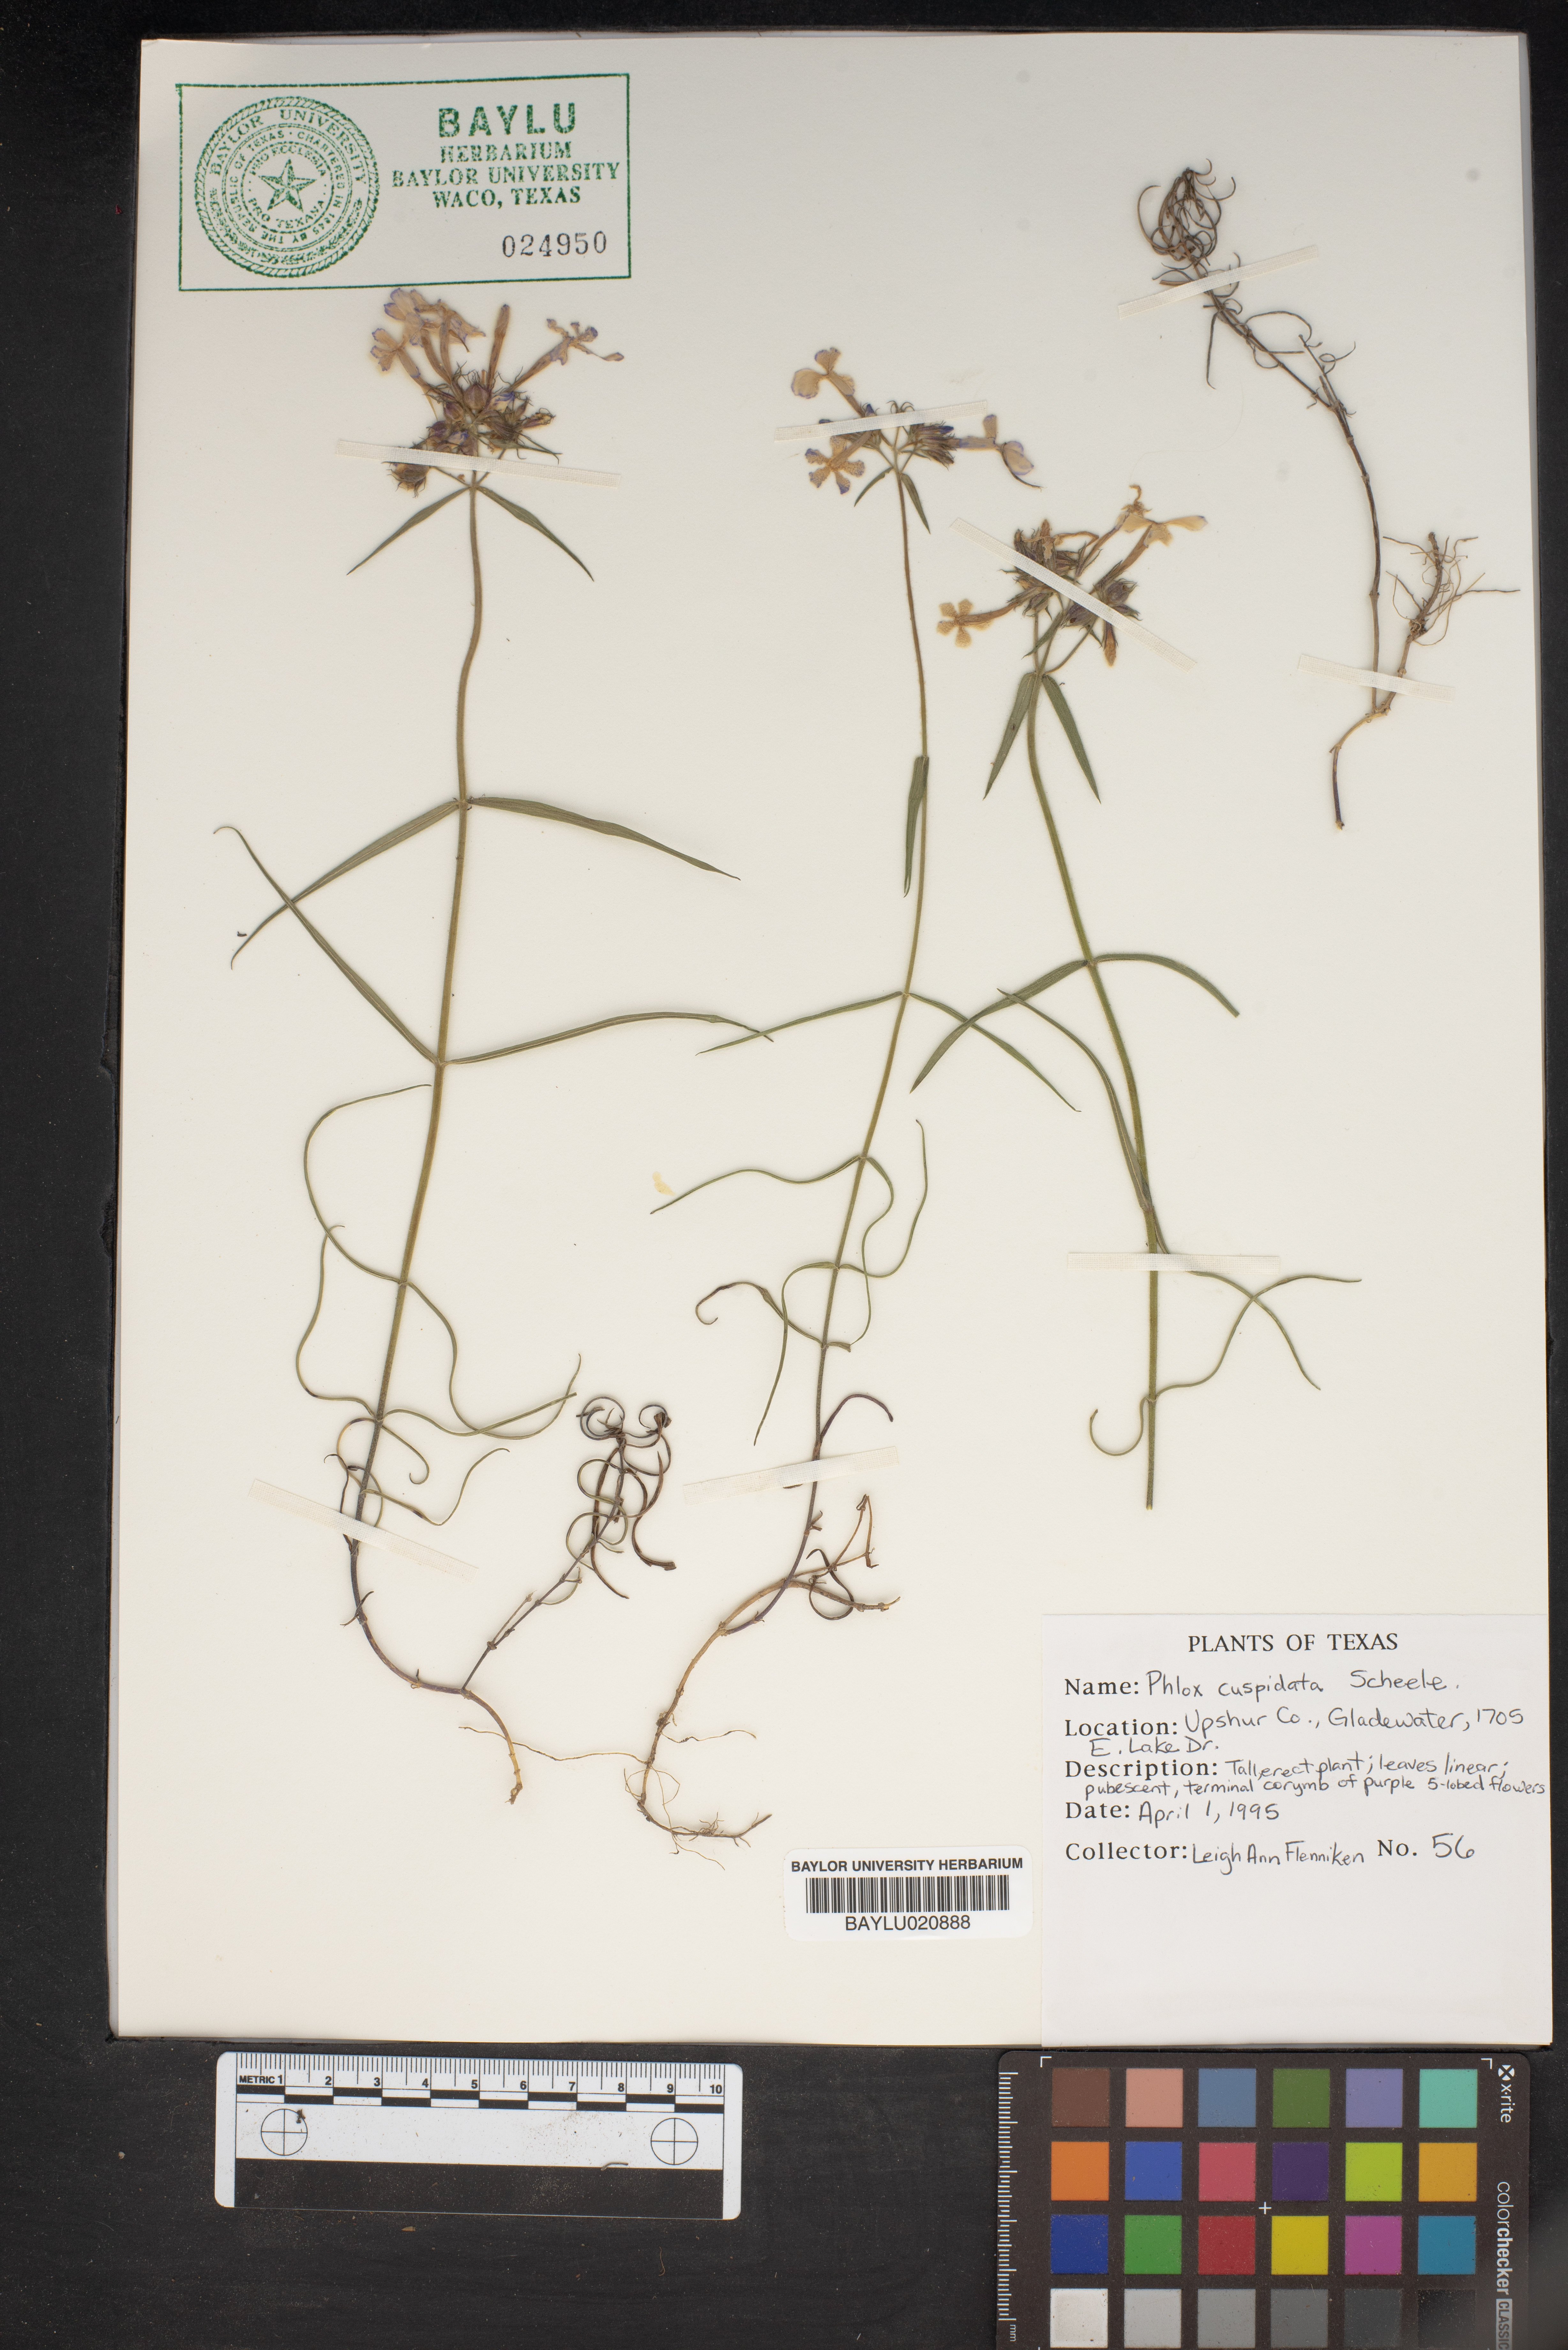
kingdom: Plantae
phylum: Tracheophyta
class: Magnoliopsida
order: Ericales
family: Polemoniaceae
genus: Phlox
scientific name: Phlox cuspidata
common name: Pointed phlox
